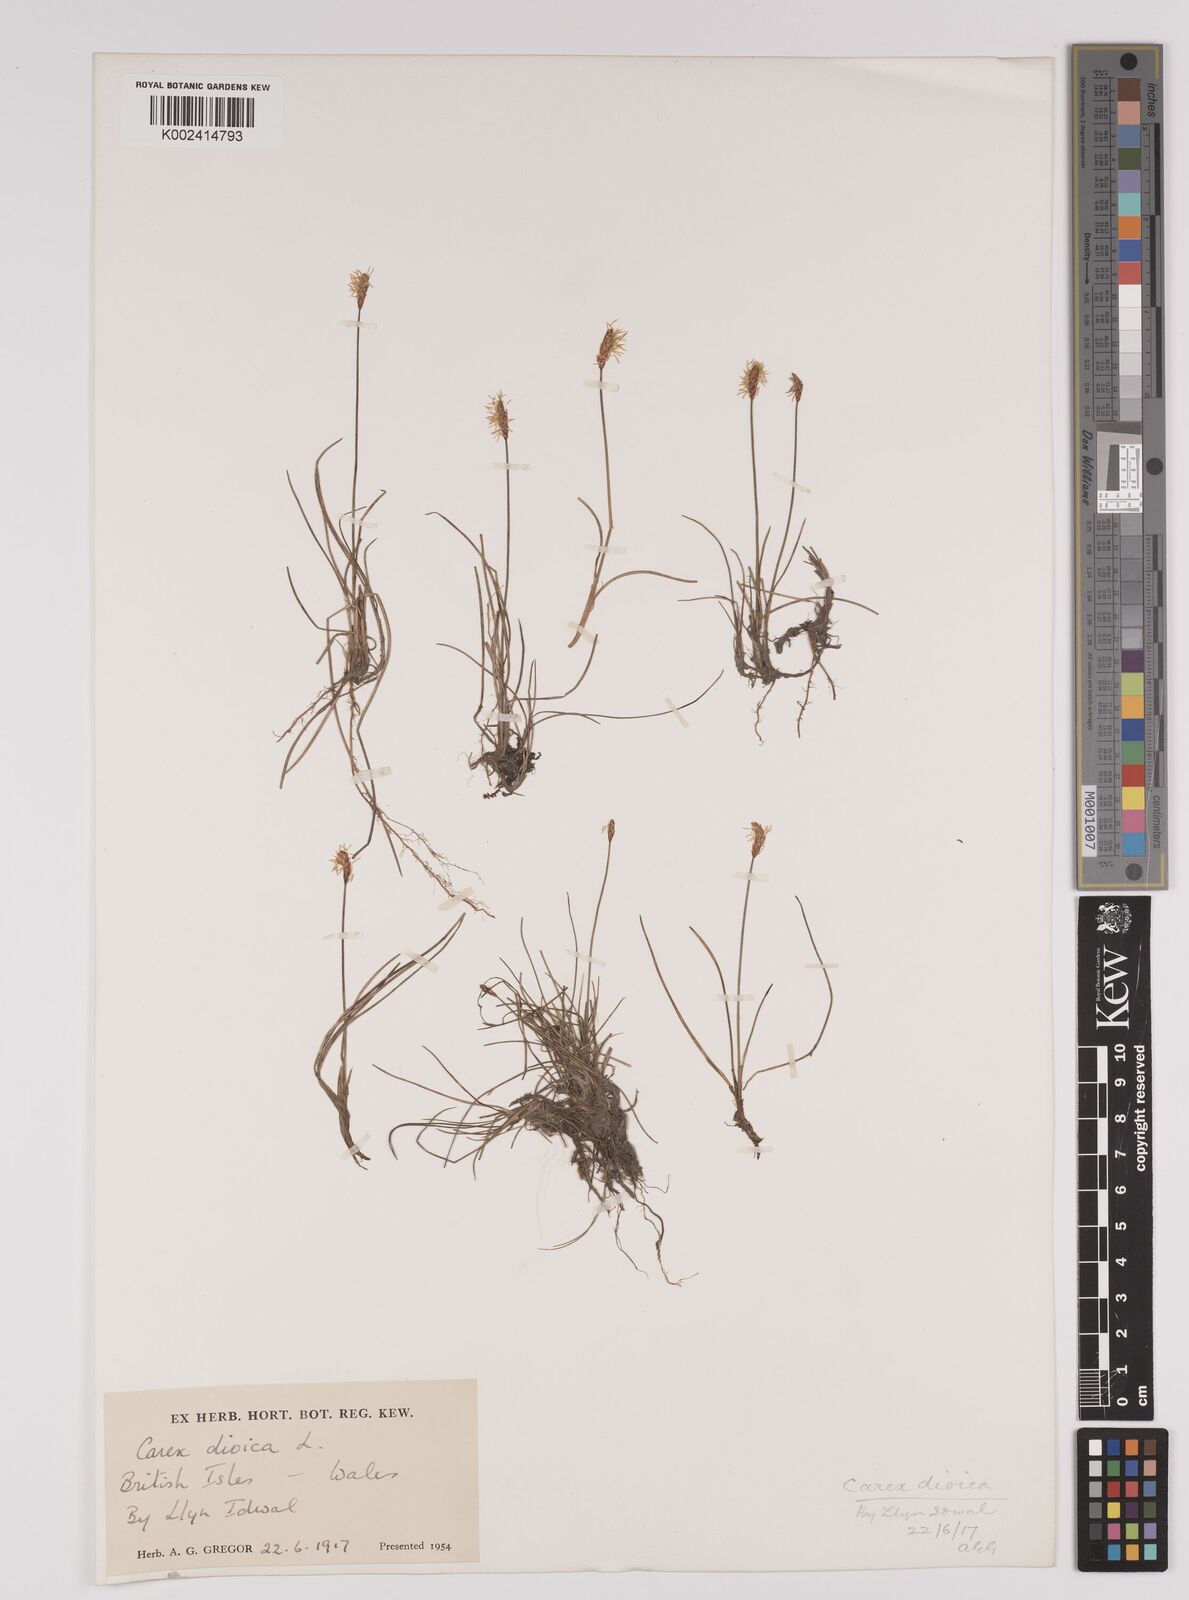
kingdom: Plantae
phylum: Tracheophyta
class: Liliopsida
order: Poales
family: Cyperaceae
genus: Carex
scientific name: Carex dioica
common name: Dioecious sedge
